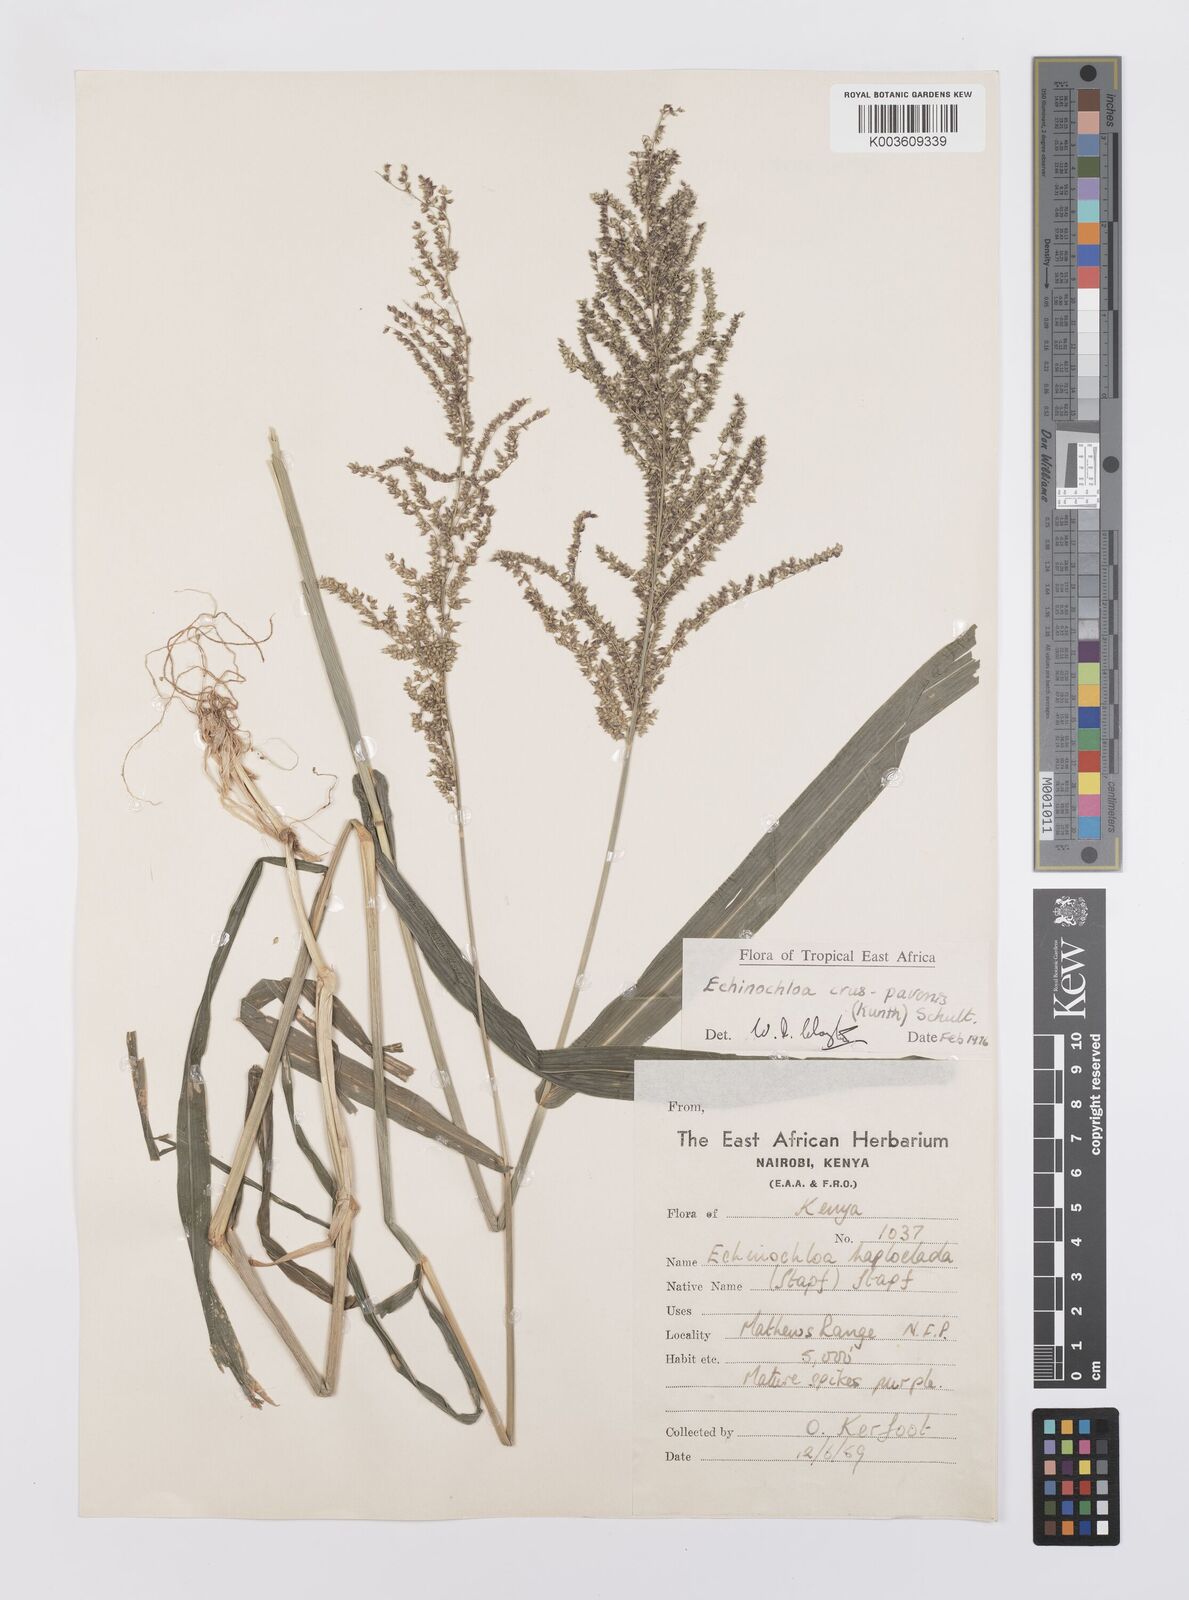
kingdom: Plantae
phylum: Tracheophyta
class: Liliopsida
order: Poales
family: Poaceae
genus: Echinochloa
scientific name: Echinochloa crus-pavonis
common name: Gulf cockspur grass
